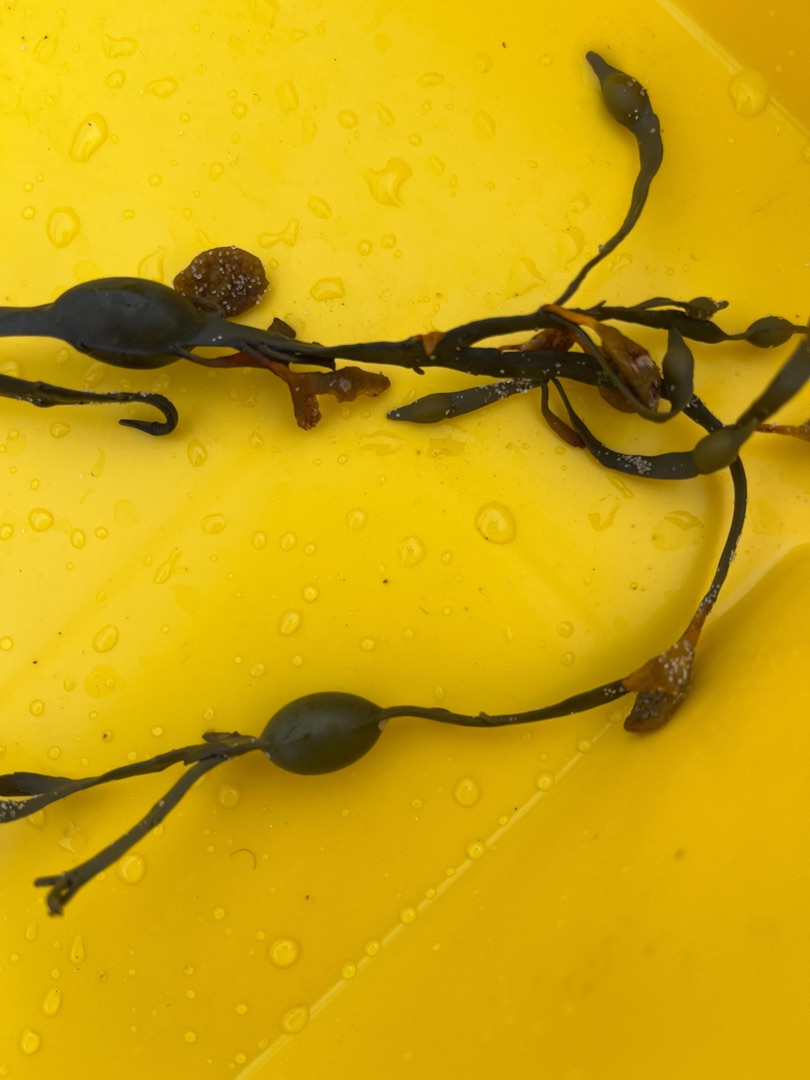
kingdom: Chromista
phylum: Ochrophyta
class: Phaeophyceae
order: Fucales
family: Fucaceae
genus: Ascophyllum
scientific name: Ascophyllum nodosum
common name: Buletang
